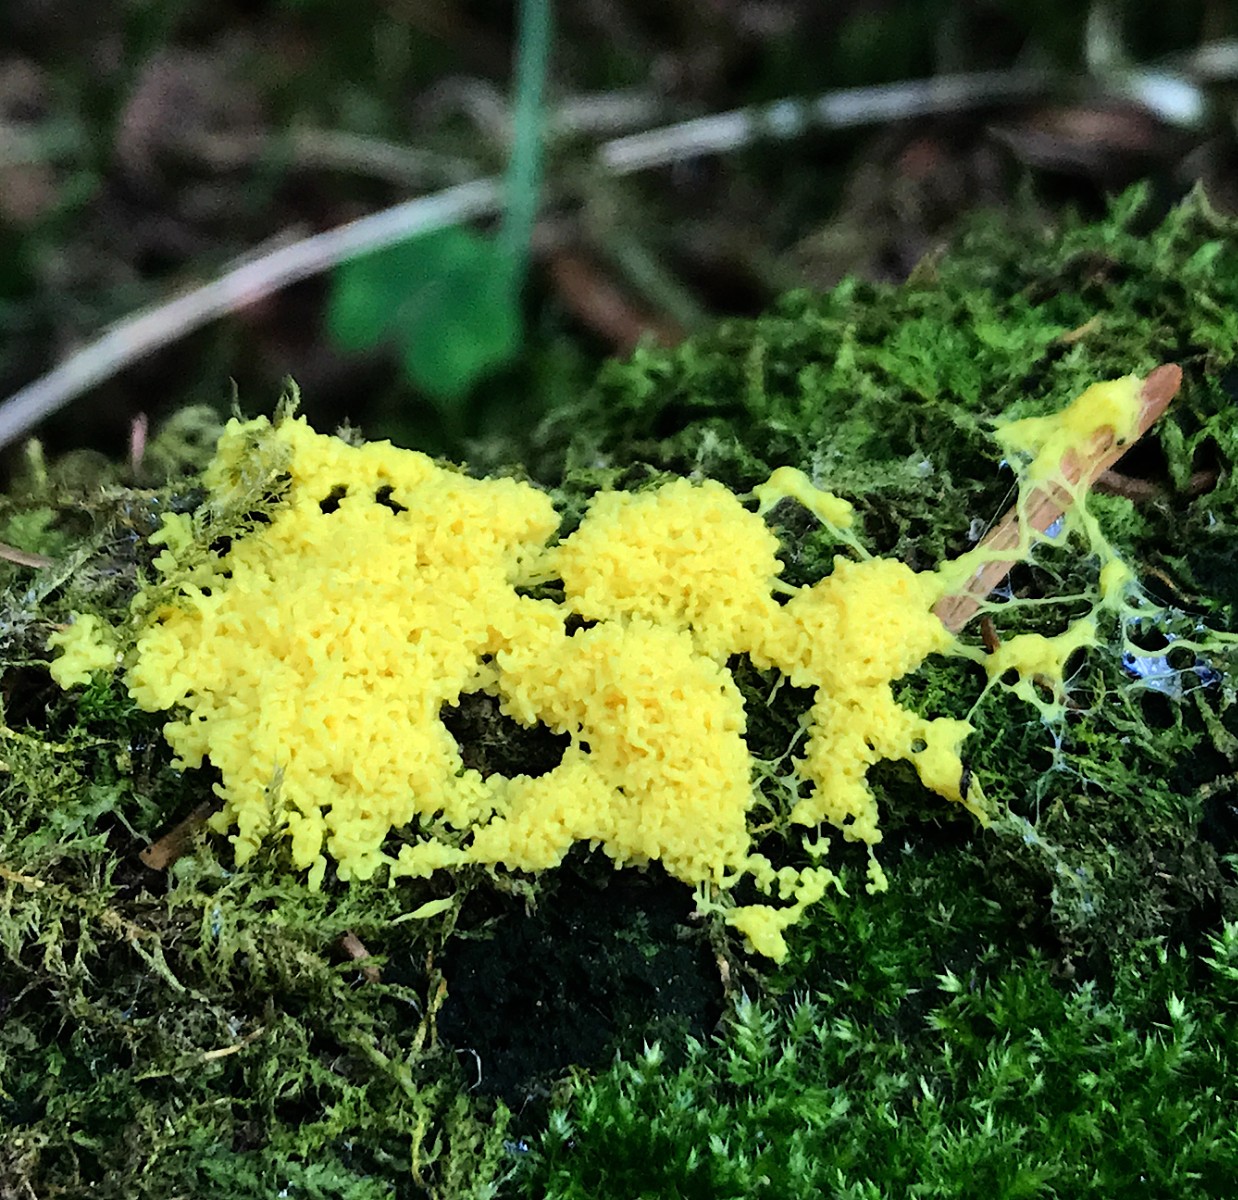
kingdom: Protozoa
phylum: Mycetozoa
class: Myxomycetes
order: Physarales
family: Physaraceae
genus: Fuligo
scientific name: Fuligo septica
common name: gul troldsmør
